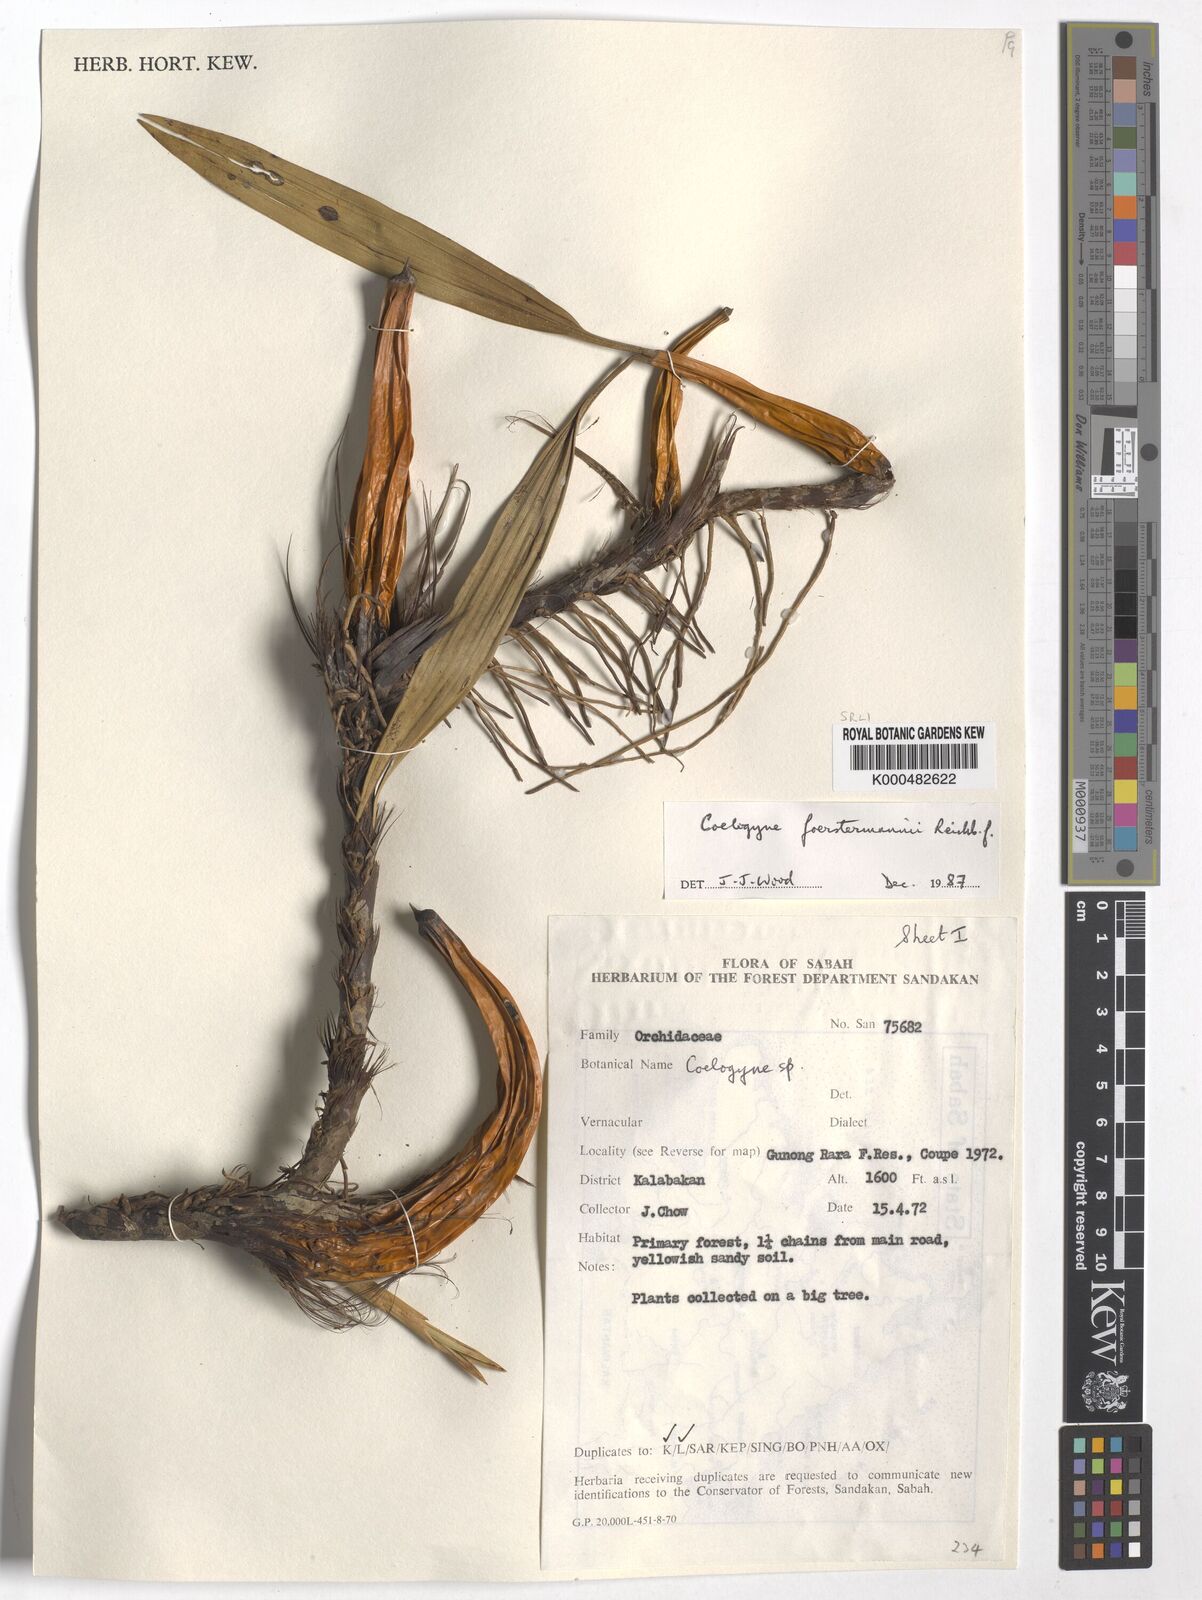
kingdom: Plantae
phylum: Tracheophyta
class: Liliopsida
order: Asparagales
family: Orchidaceae
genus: Coelogyne
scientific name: Coelogyne
